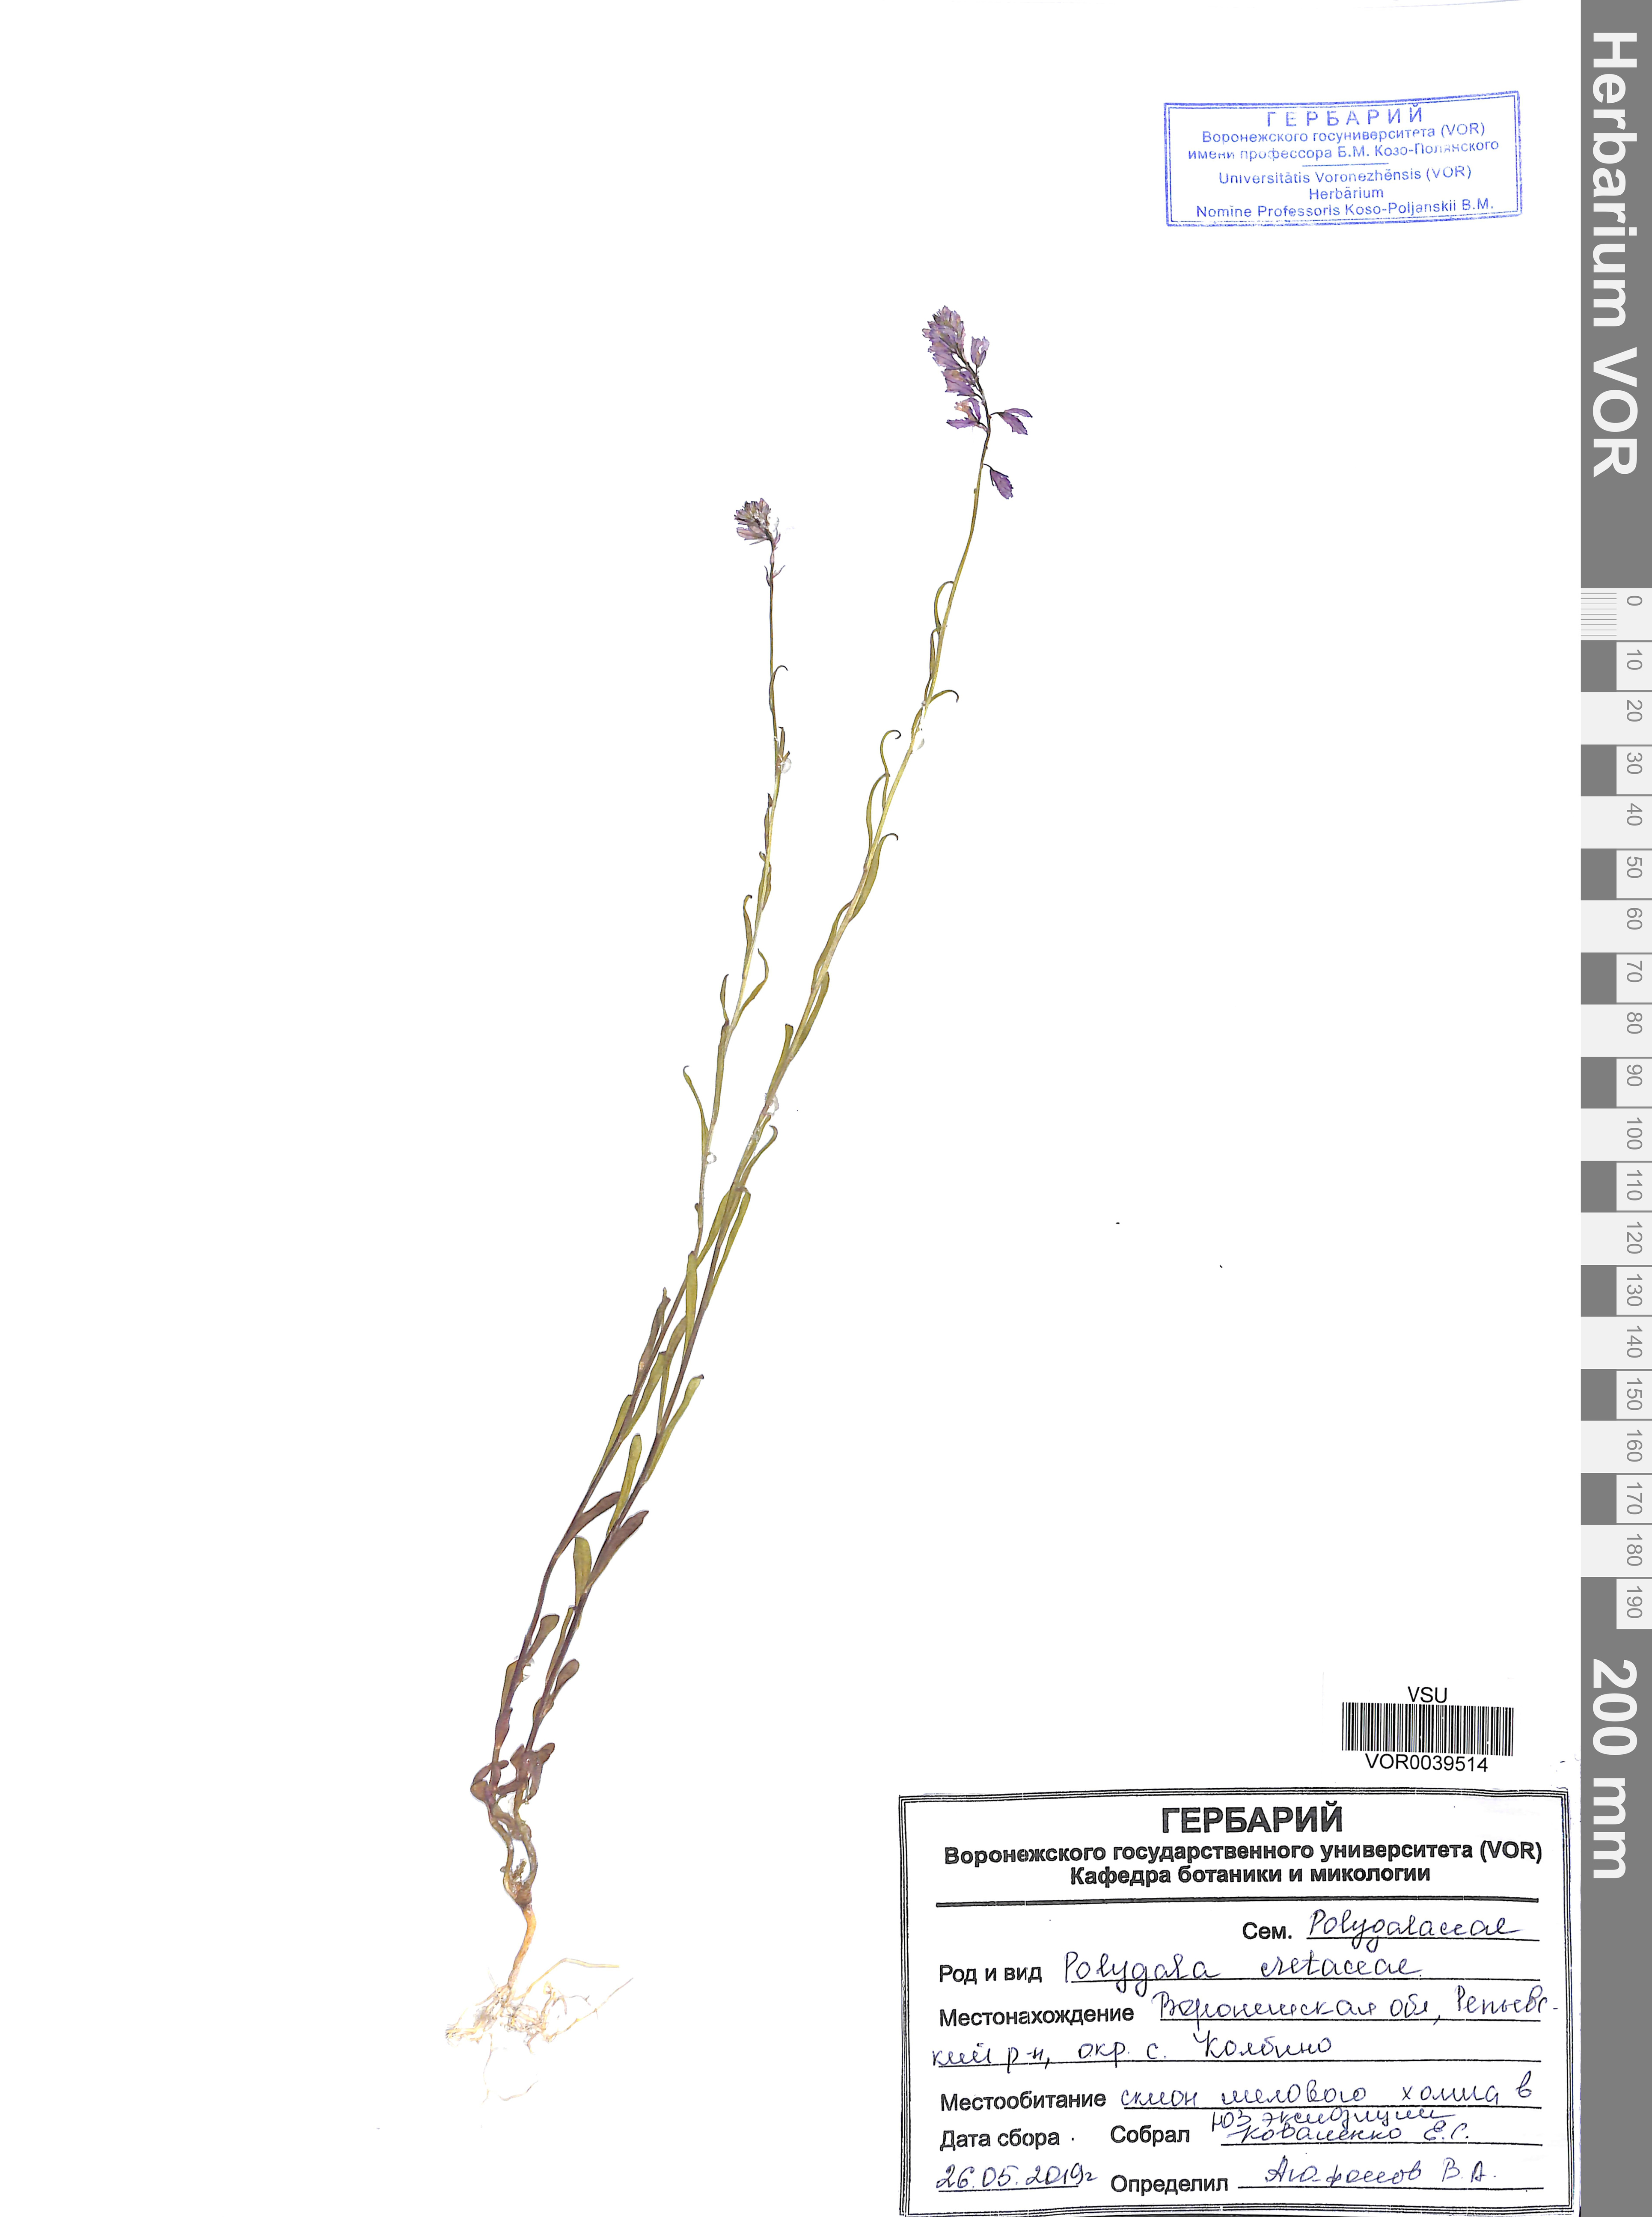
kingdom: Plantae
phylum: Tracheophyta
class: Magnoliopsida
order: Fabales
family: Polygalaceae
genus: Polygala
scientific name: Polygala nicaeensis
